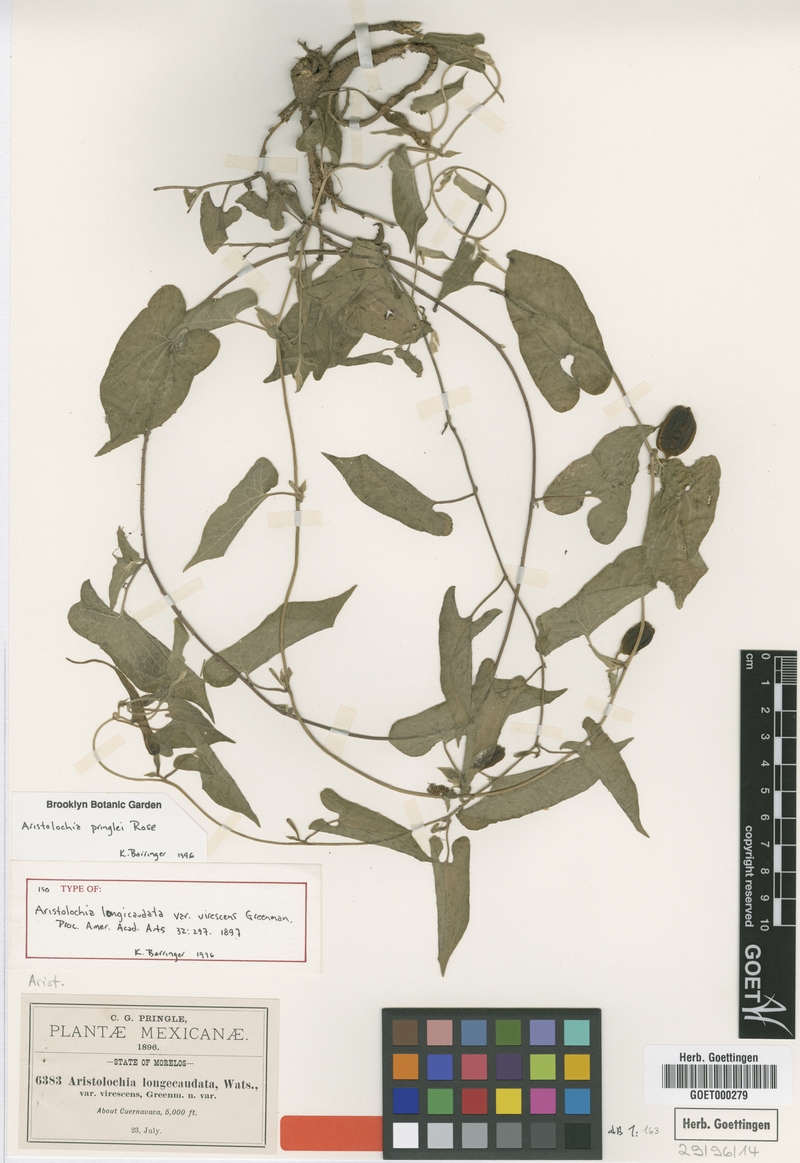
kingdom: Plantae
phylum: Tracheophyta
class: Magnoliopsida
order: Piperales
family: Aristolochiaceae
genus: Aristolochia
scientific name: Aristolochia pringlei
